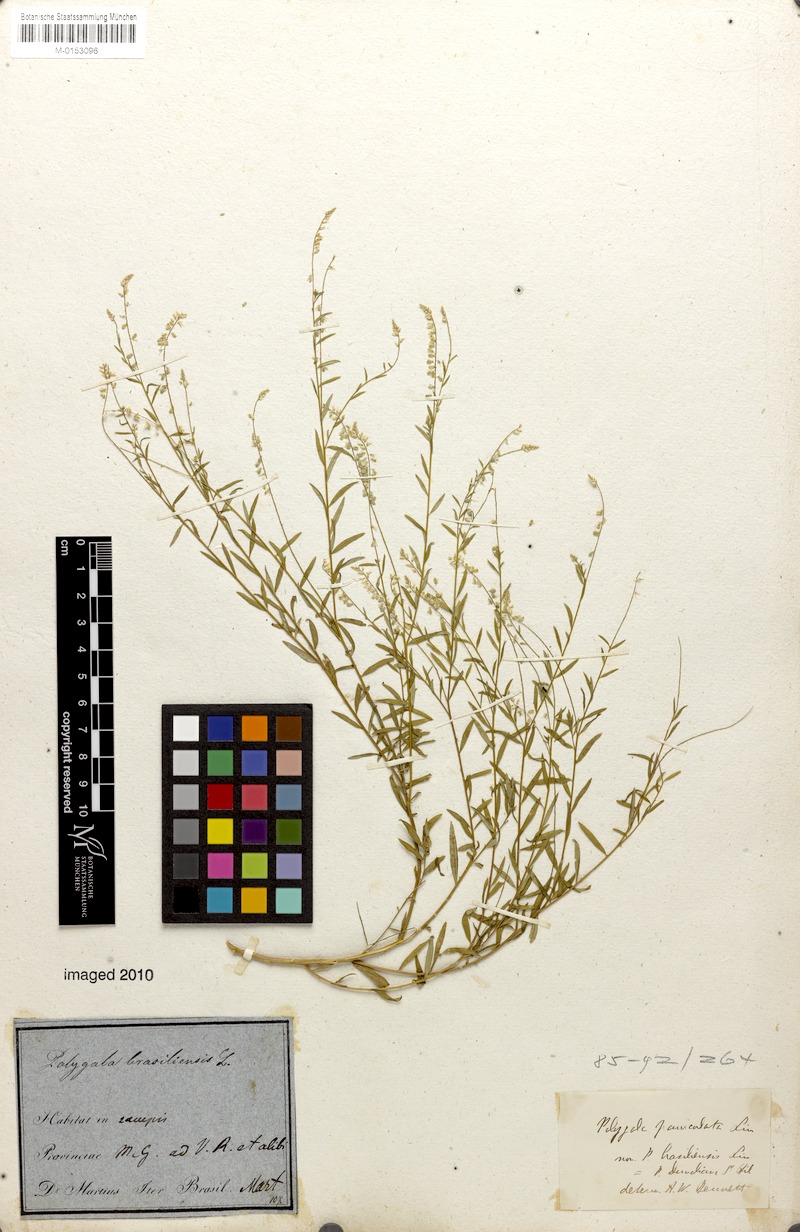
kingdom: Plantae
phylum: Tracheophyta
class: Magnoliopsida
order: Fabales
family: Polygalaceae
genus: Polygala
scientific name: Polygala brasiliensis
